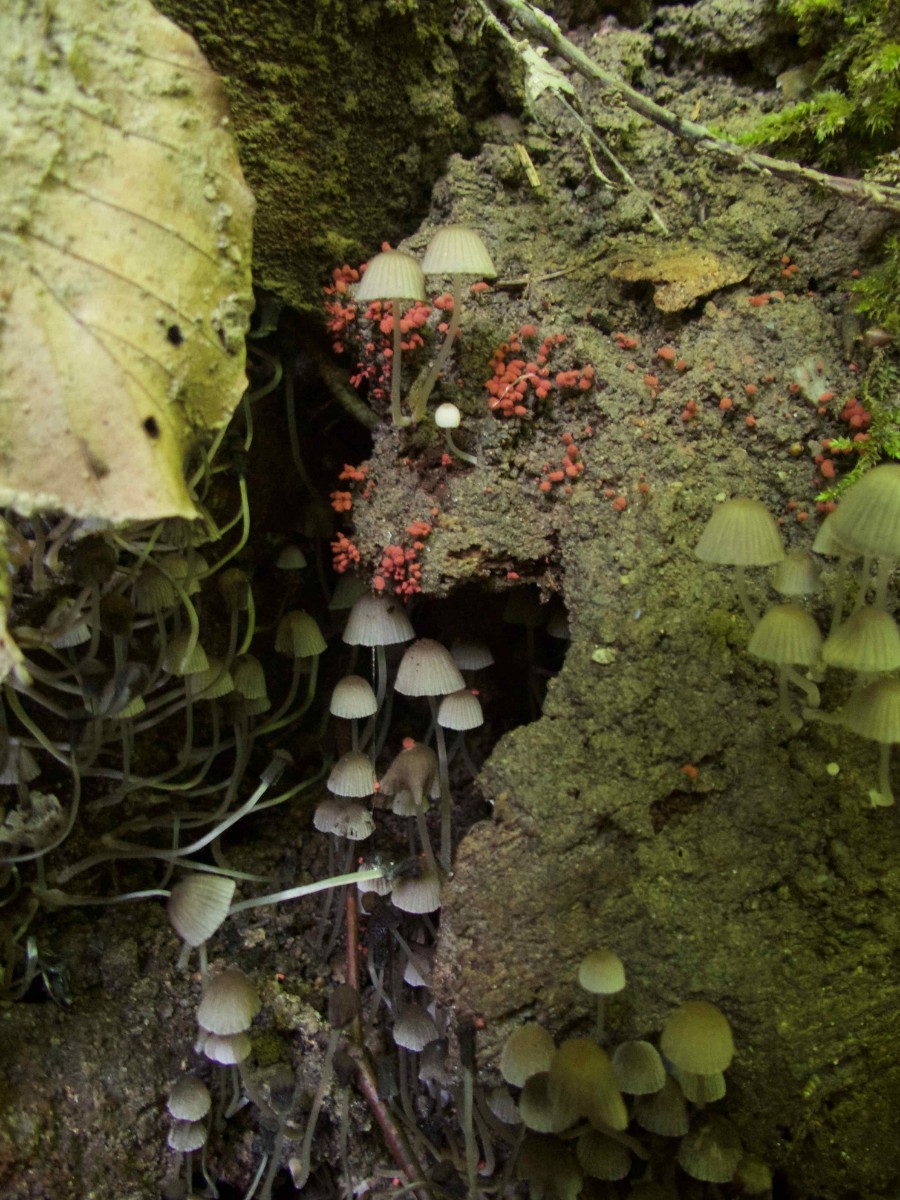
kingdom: Fungi
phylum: Basidiomycota
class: Agaricomycetes
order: Agaricales
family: Psathyrellaceae
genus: Coprinellus
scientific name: Coprinellus disseminatus
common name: bredsået blækhat
